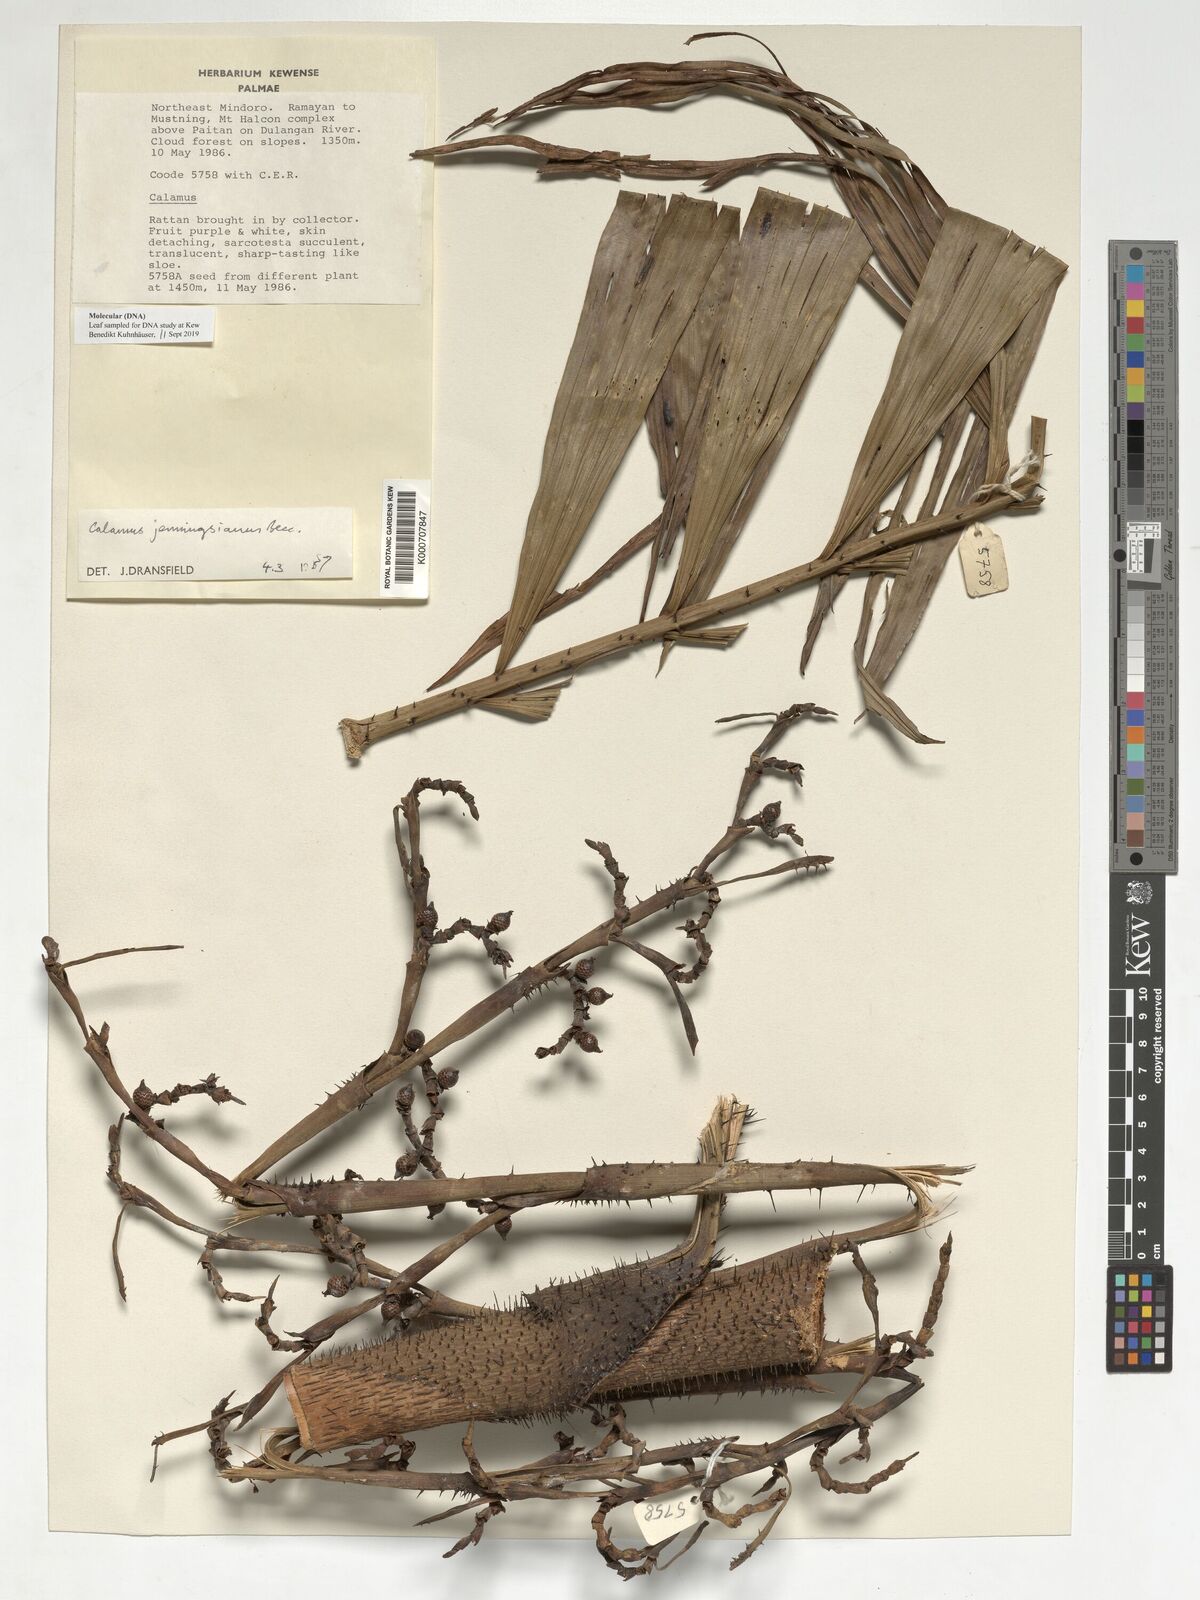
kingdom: Plantae
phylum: Tracheophyta
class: Liliopsida
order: Arecales
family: Arecaceae
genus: Calamus
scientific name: Calamus moseleyanus
